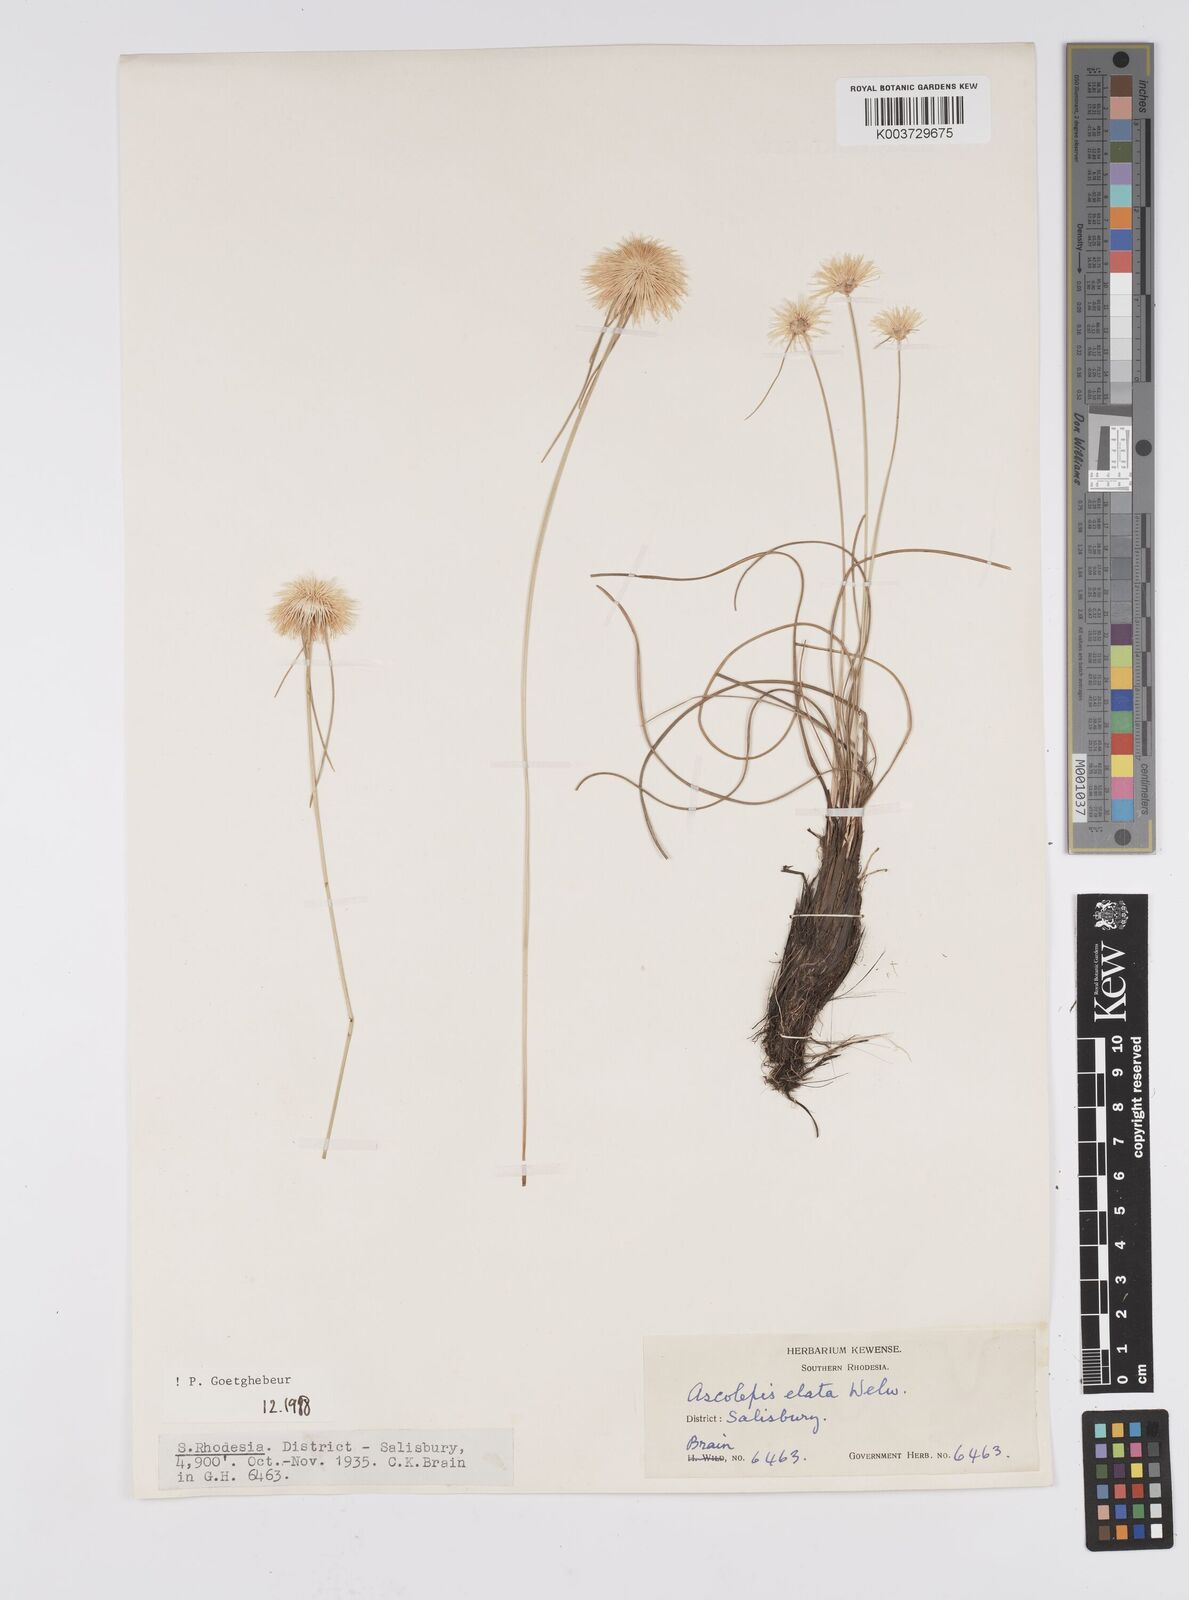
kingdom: Plantae
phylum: Tracheophyta
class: Liliopsida
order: Poales
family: Cyperaceae
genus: Cyperus
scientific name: Cyperus
